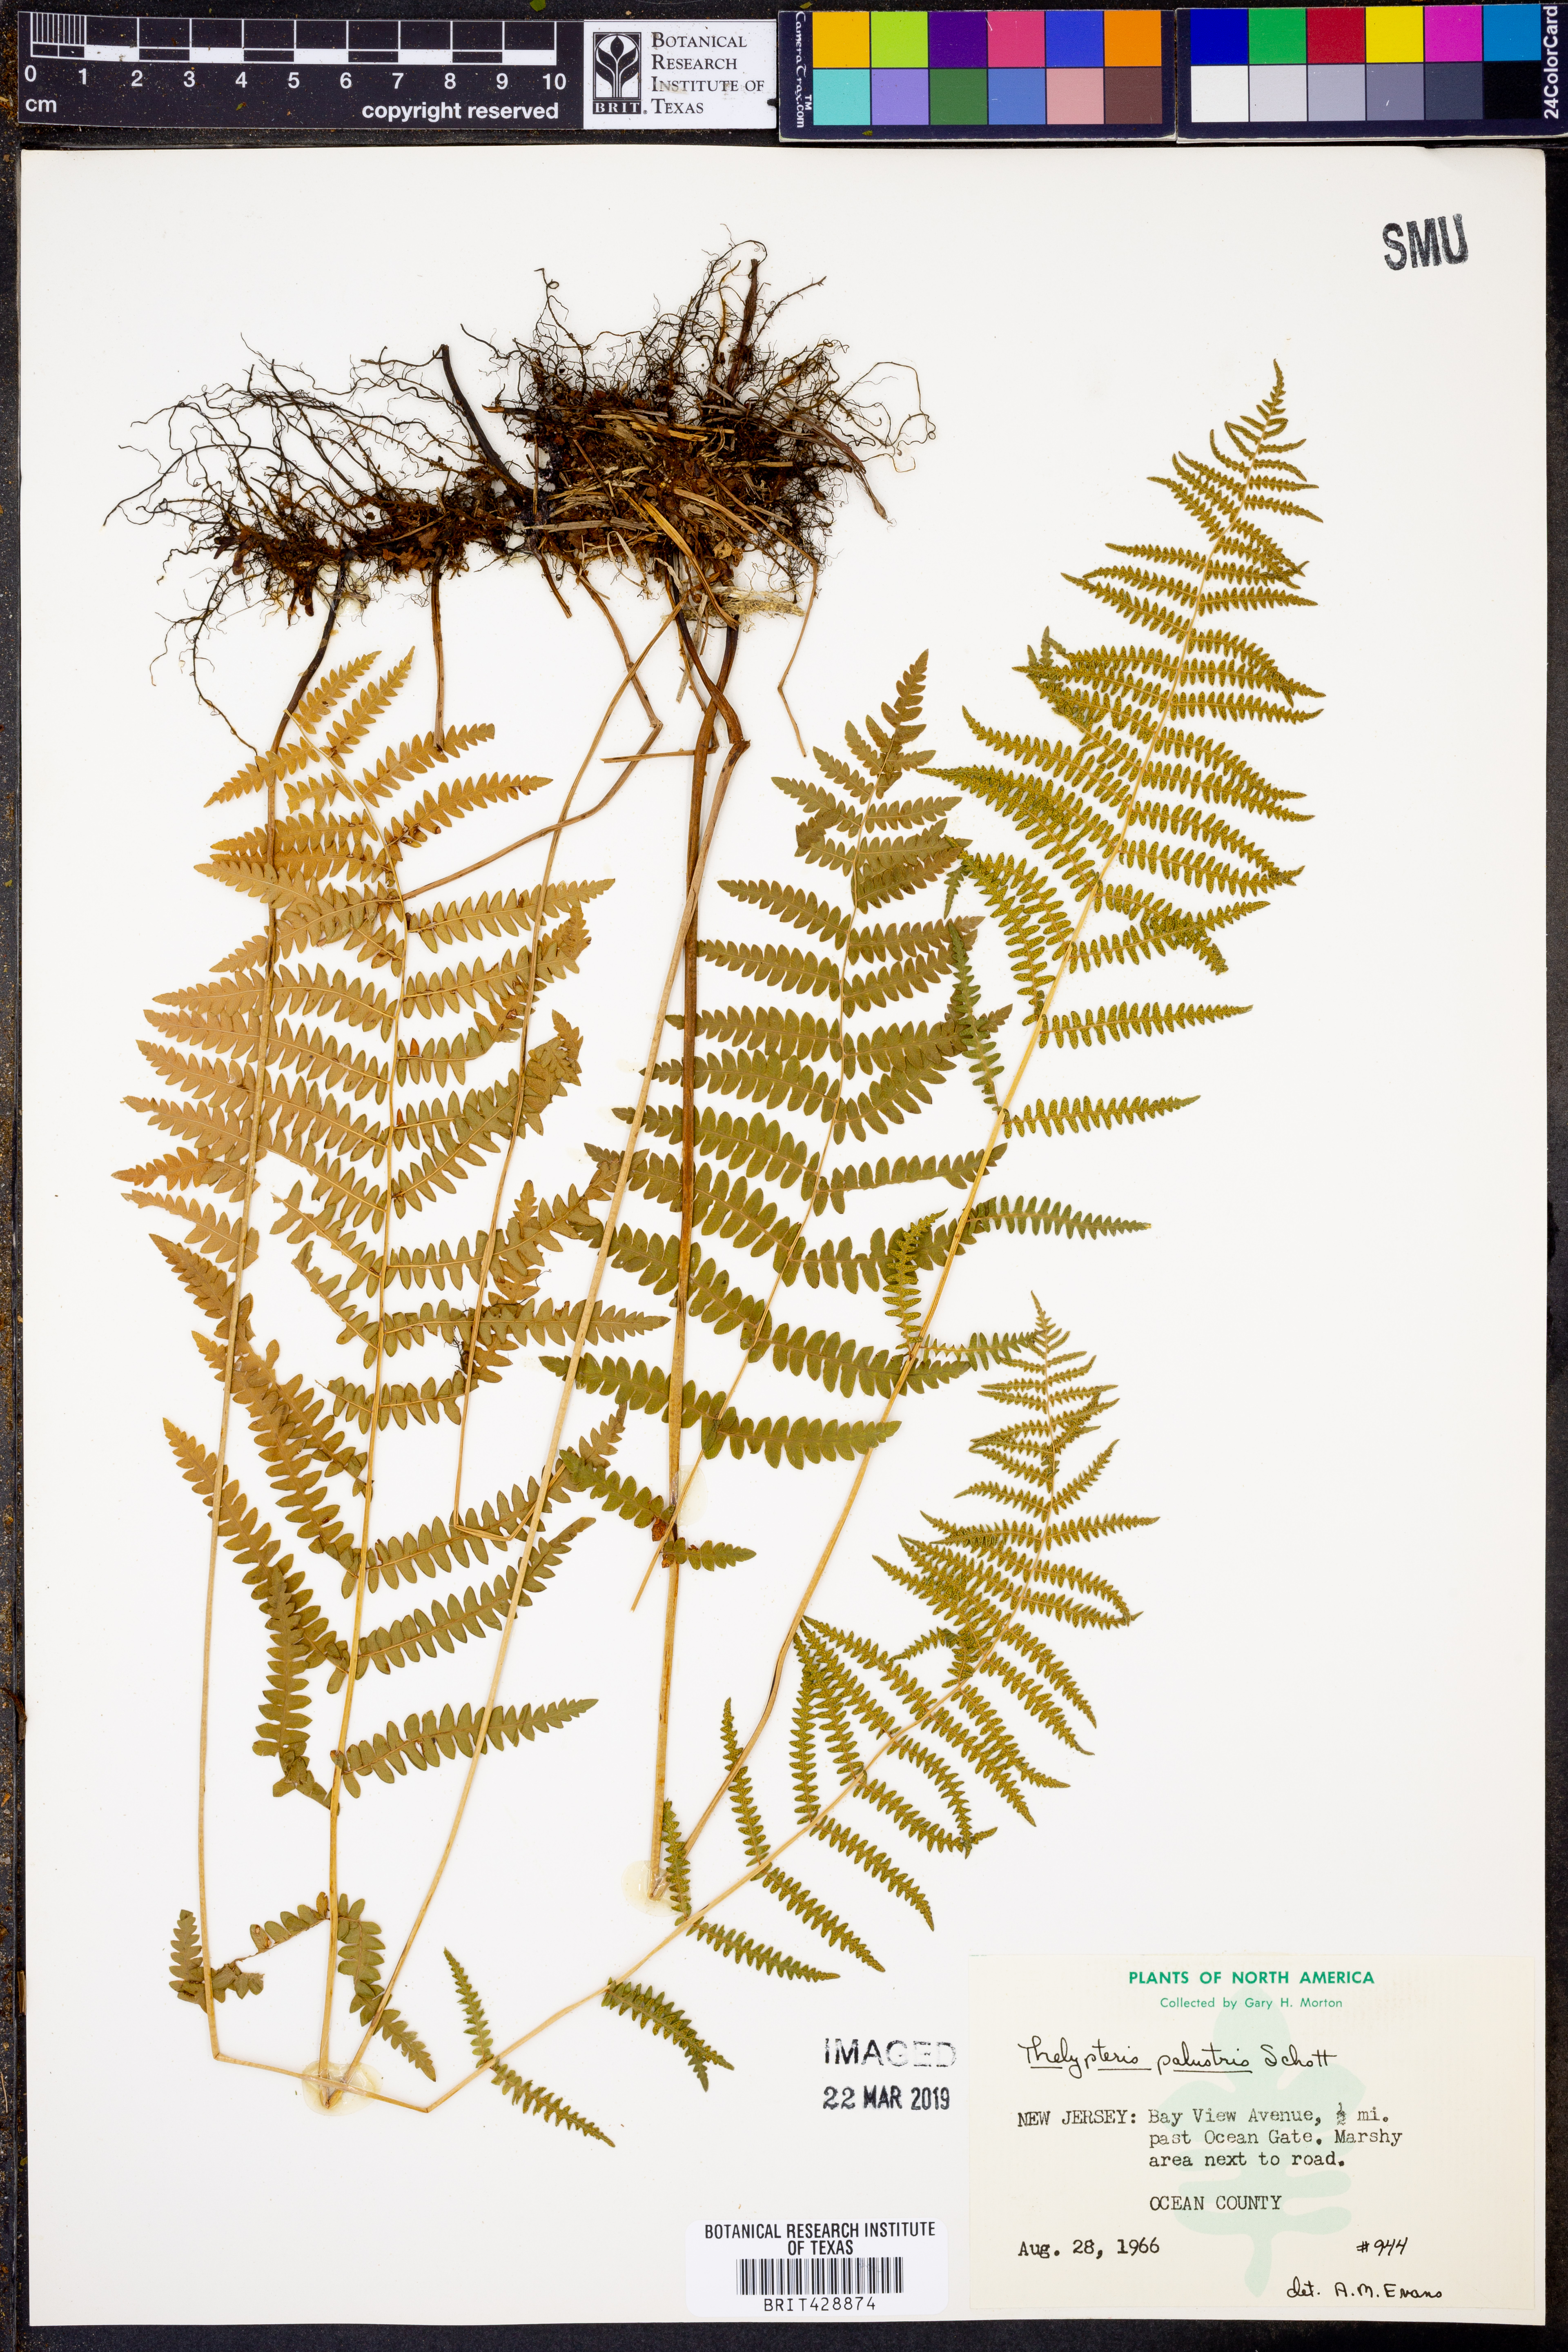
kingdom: Plantae
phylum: Tracheophyta
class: Polypodiopsida
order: Polypodiales
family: Thelypteridaceae
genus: Thelypteris
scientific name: Thelypteris palustris
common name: Marsh fern
